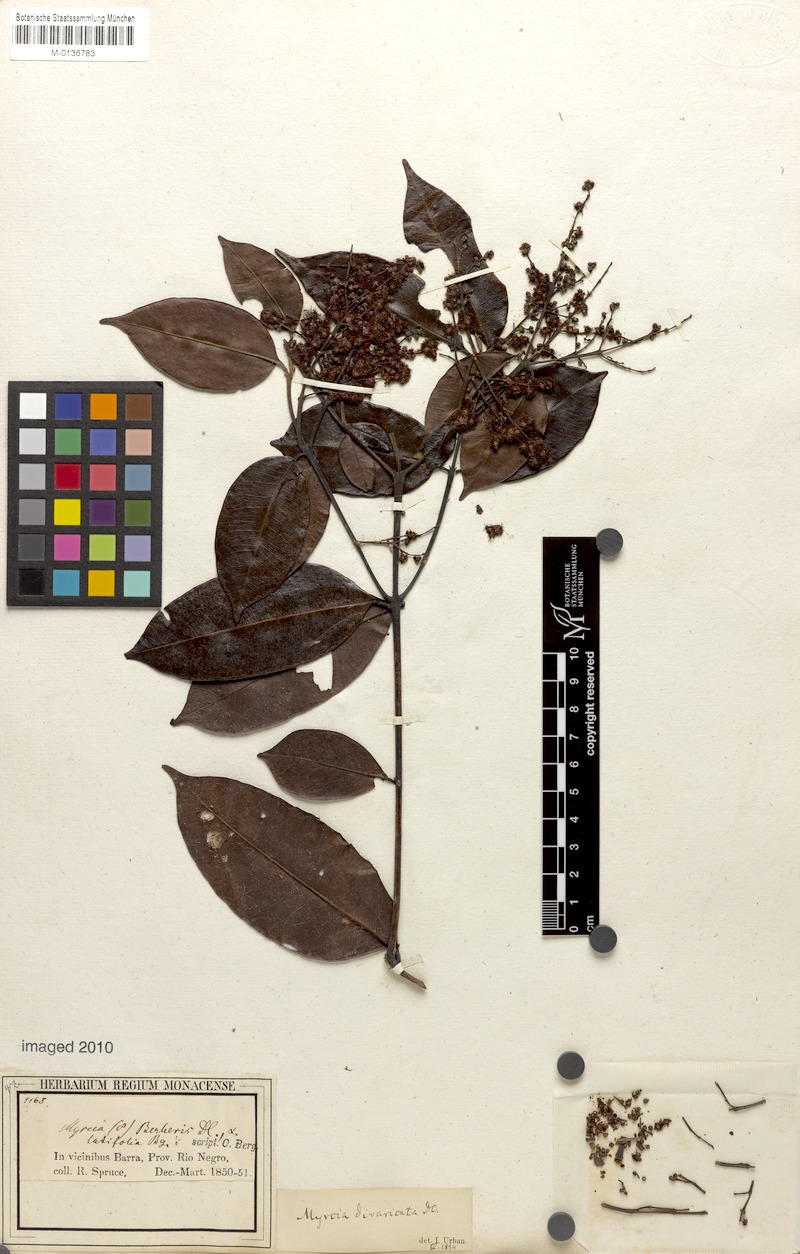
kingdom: Plantae
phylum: Tracheophyta
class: Magnoliopsida
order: Myrtales
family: Myrtaceae
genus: Myrcia
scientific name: Myrcia splendens
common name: Surinam cherry
